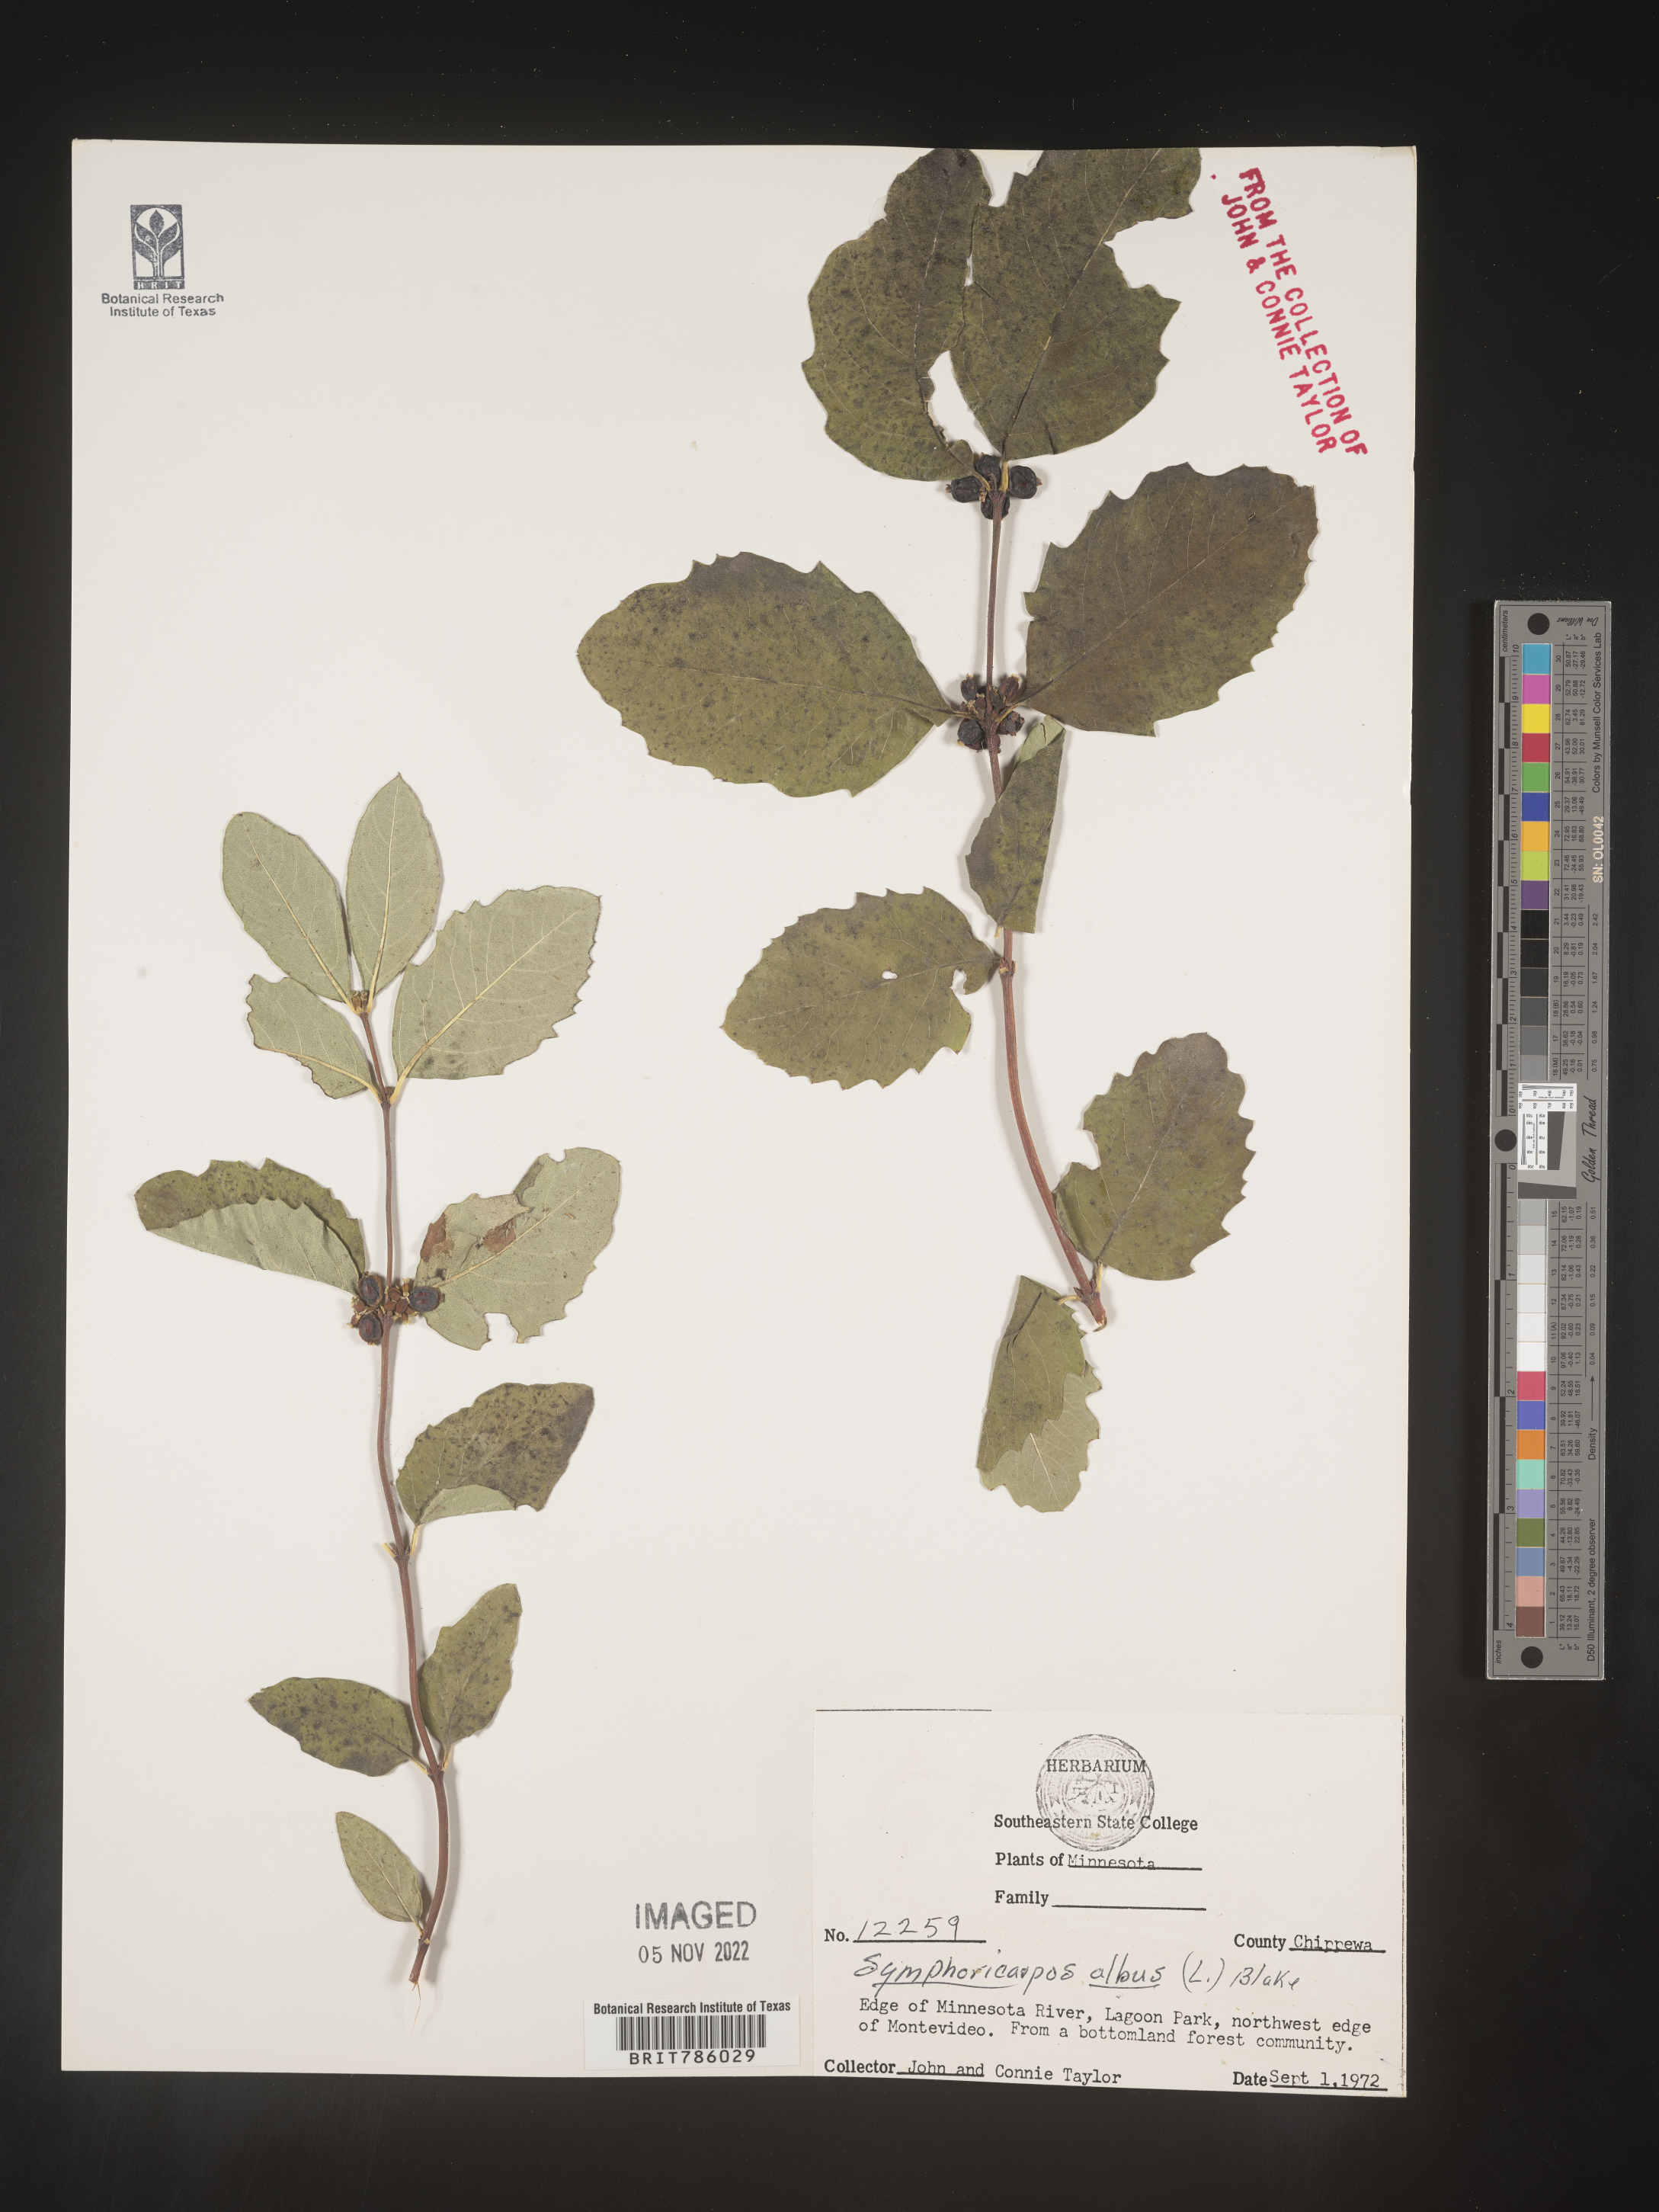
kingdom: Plantae
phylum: Tracheophyta
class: Magnoliopsida
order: Dipsacales
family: Caprifoliaceae
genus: Symphoricarpos
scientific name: Symphoricarpos albus
